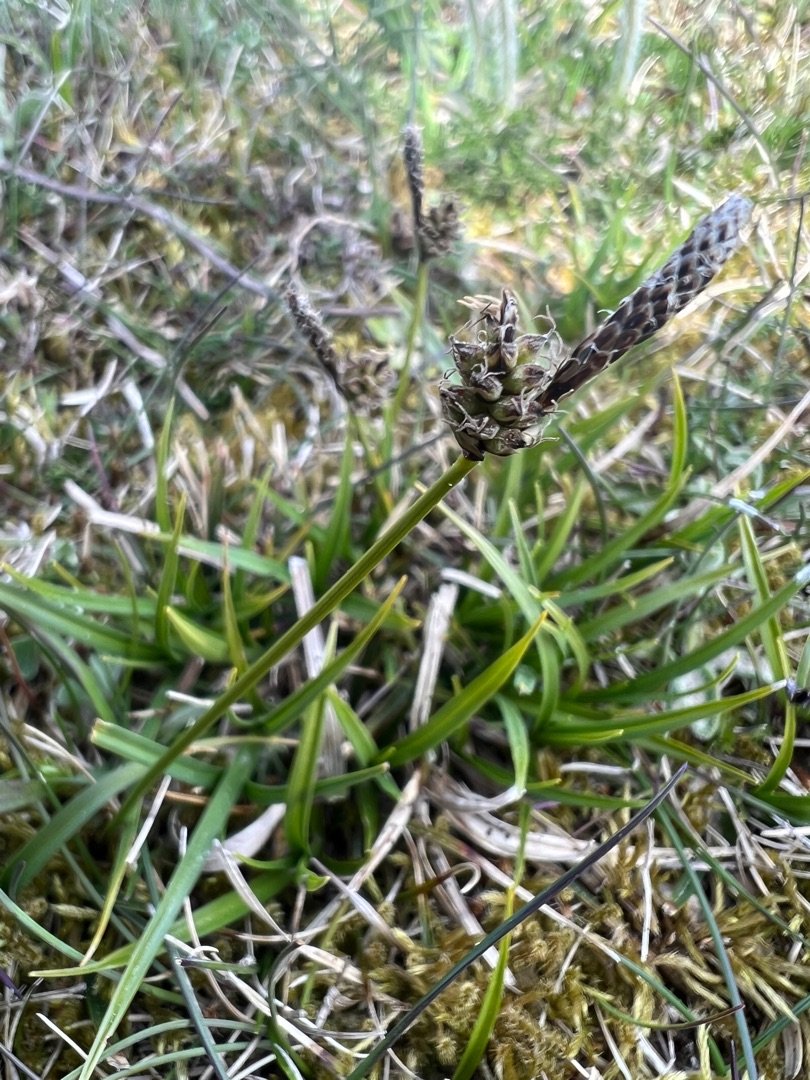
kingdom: Plantae
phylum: Tracheophyta
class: Liliopsida
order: Poales
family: Cyperaceae
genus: Carex
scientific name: Carex ericetorum
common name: Lyng-star
